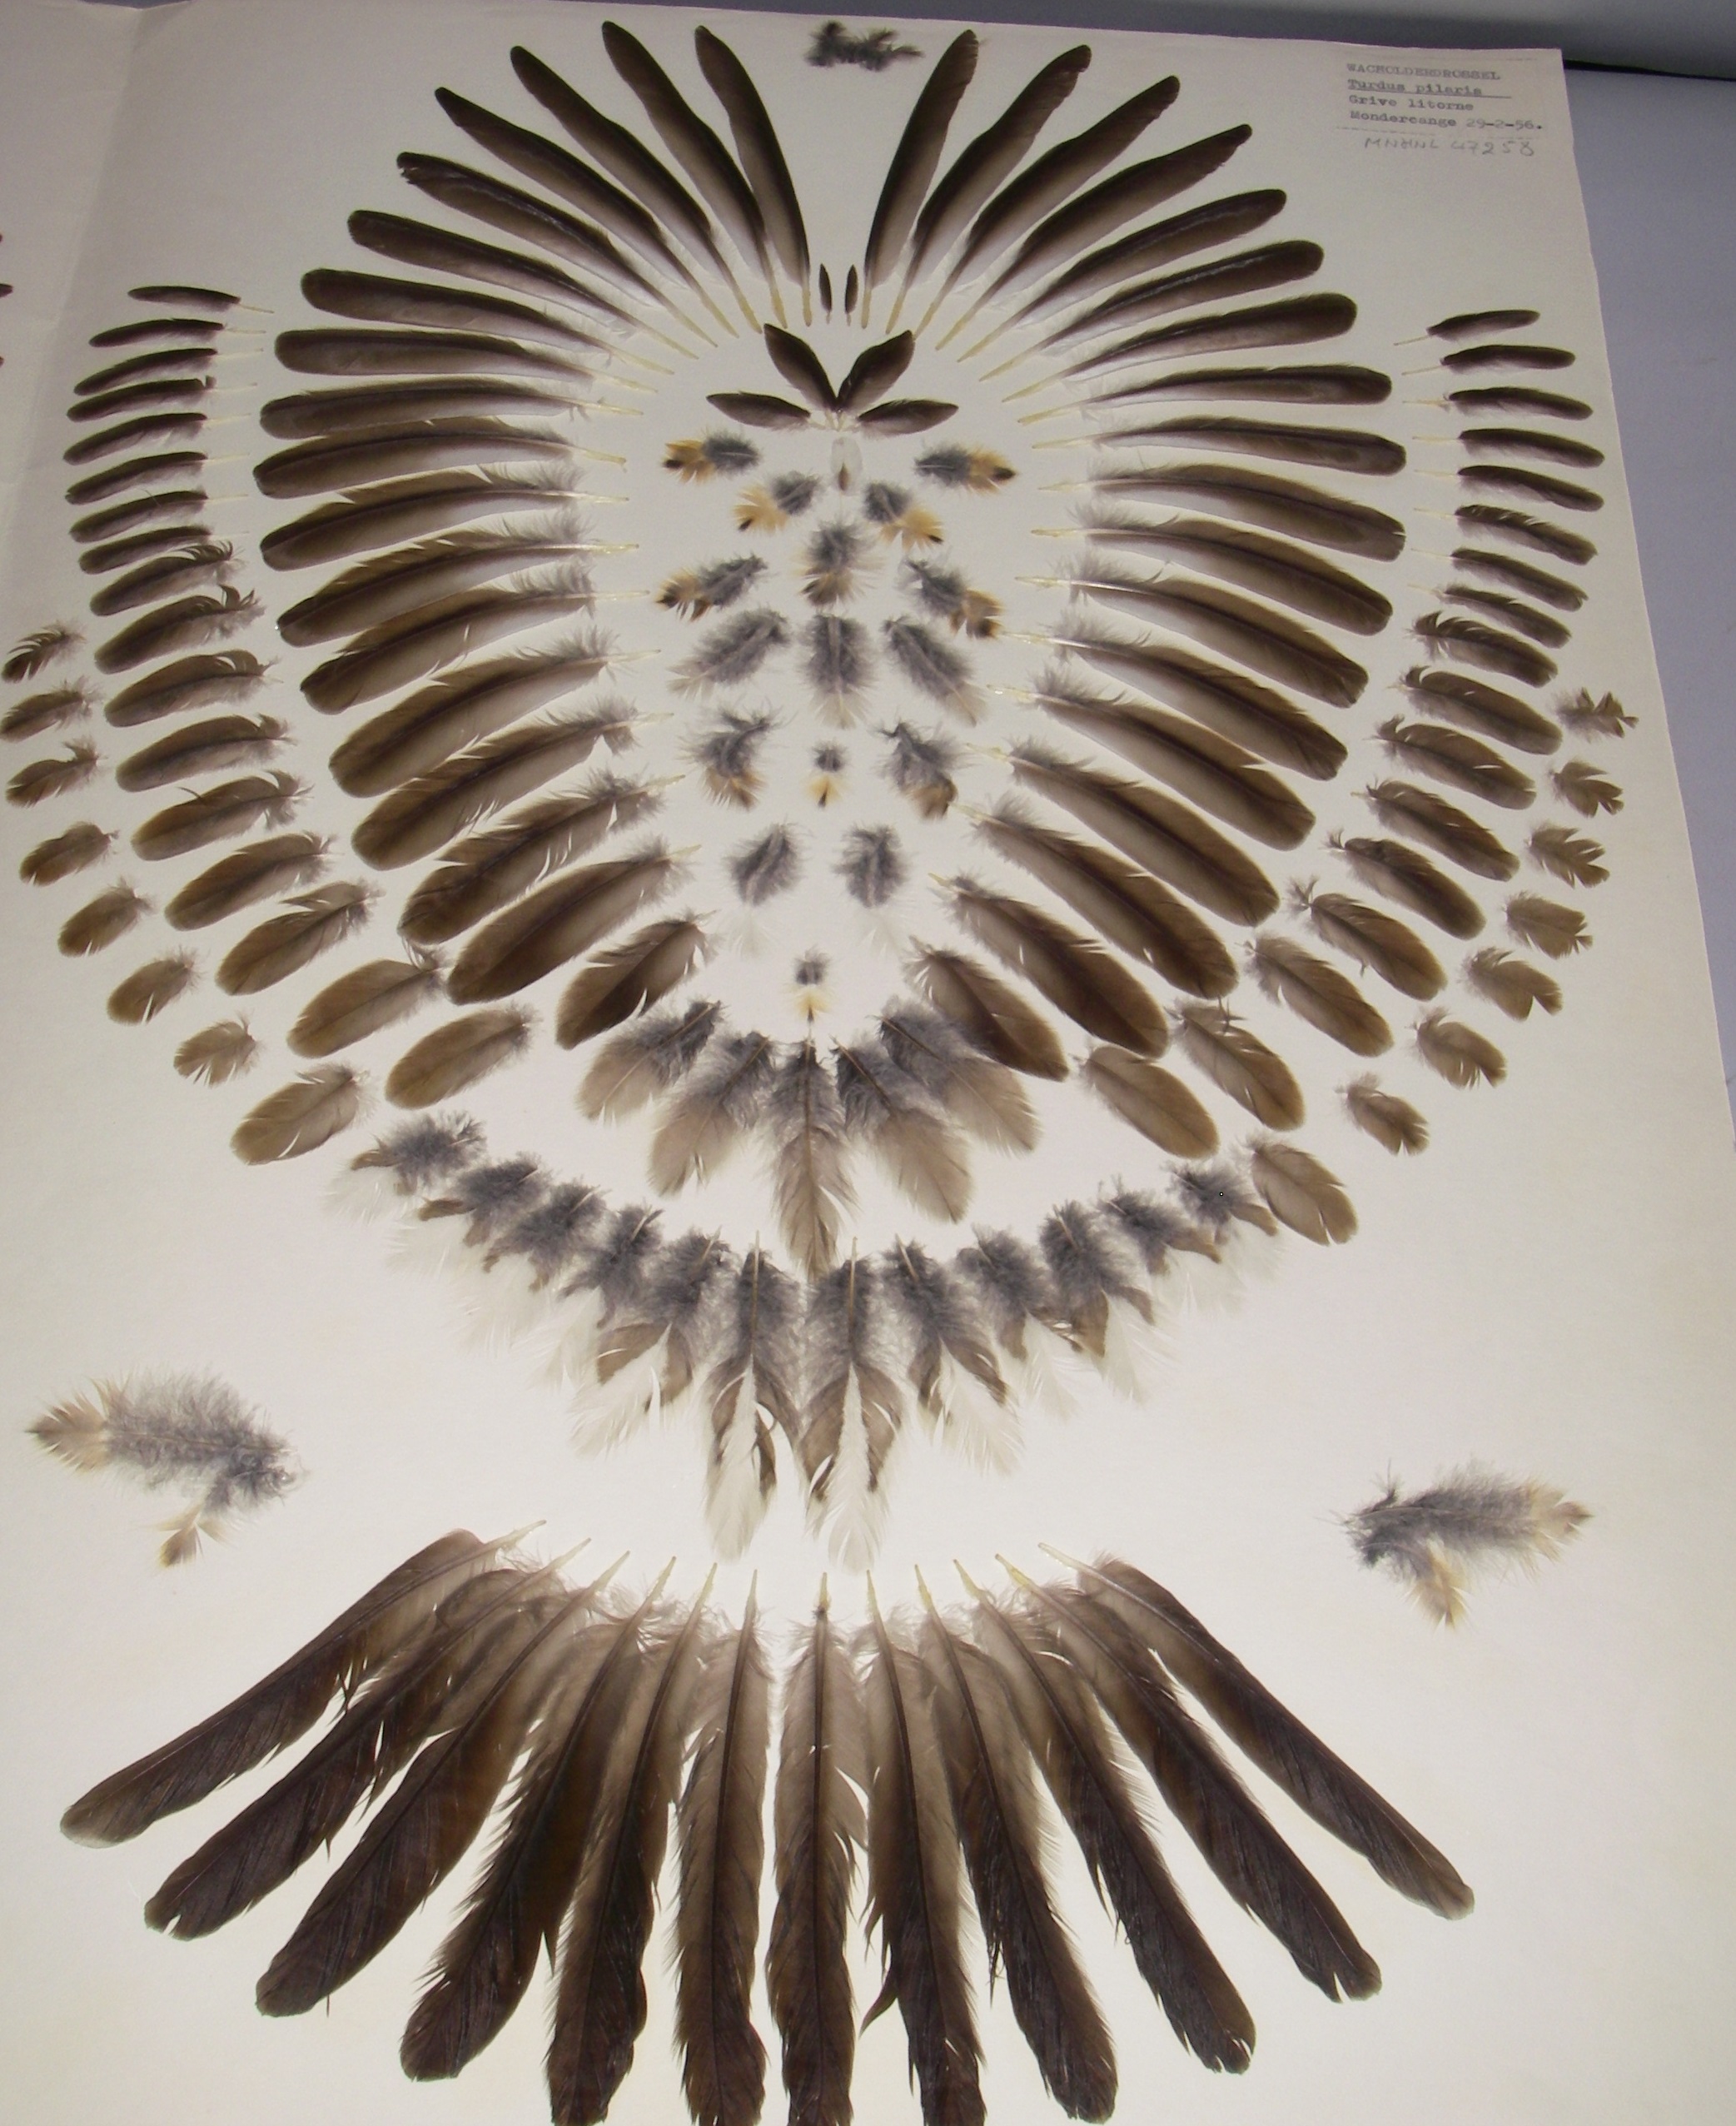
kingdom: Animalia
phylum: Chordata
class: Aves
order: Passeriformes
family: Turdidae
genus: Turdus
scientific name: Turdus pilaris
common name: Fieldfare
